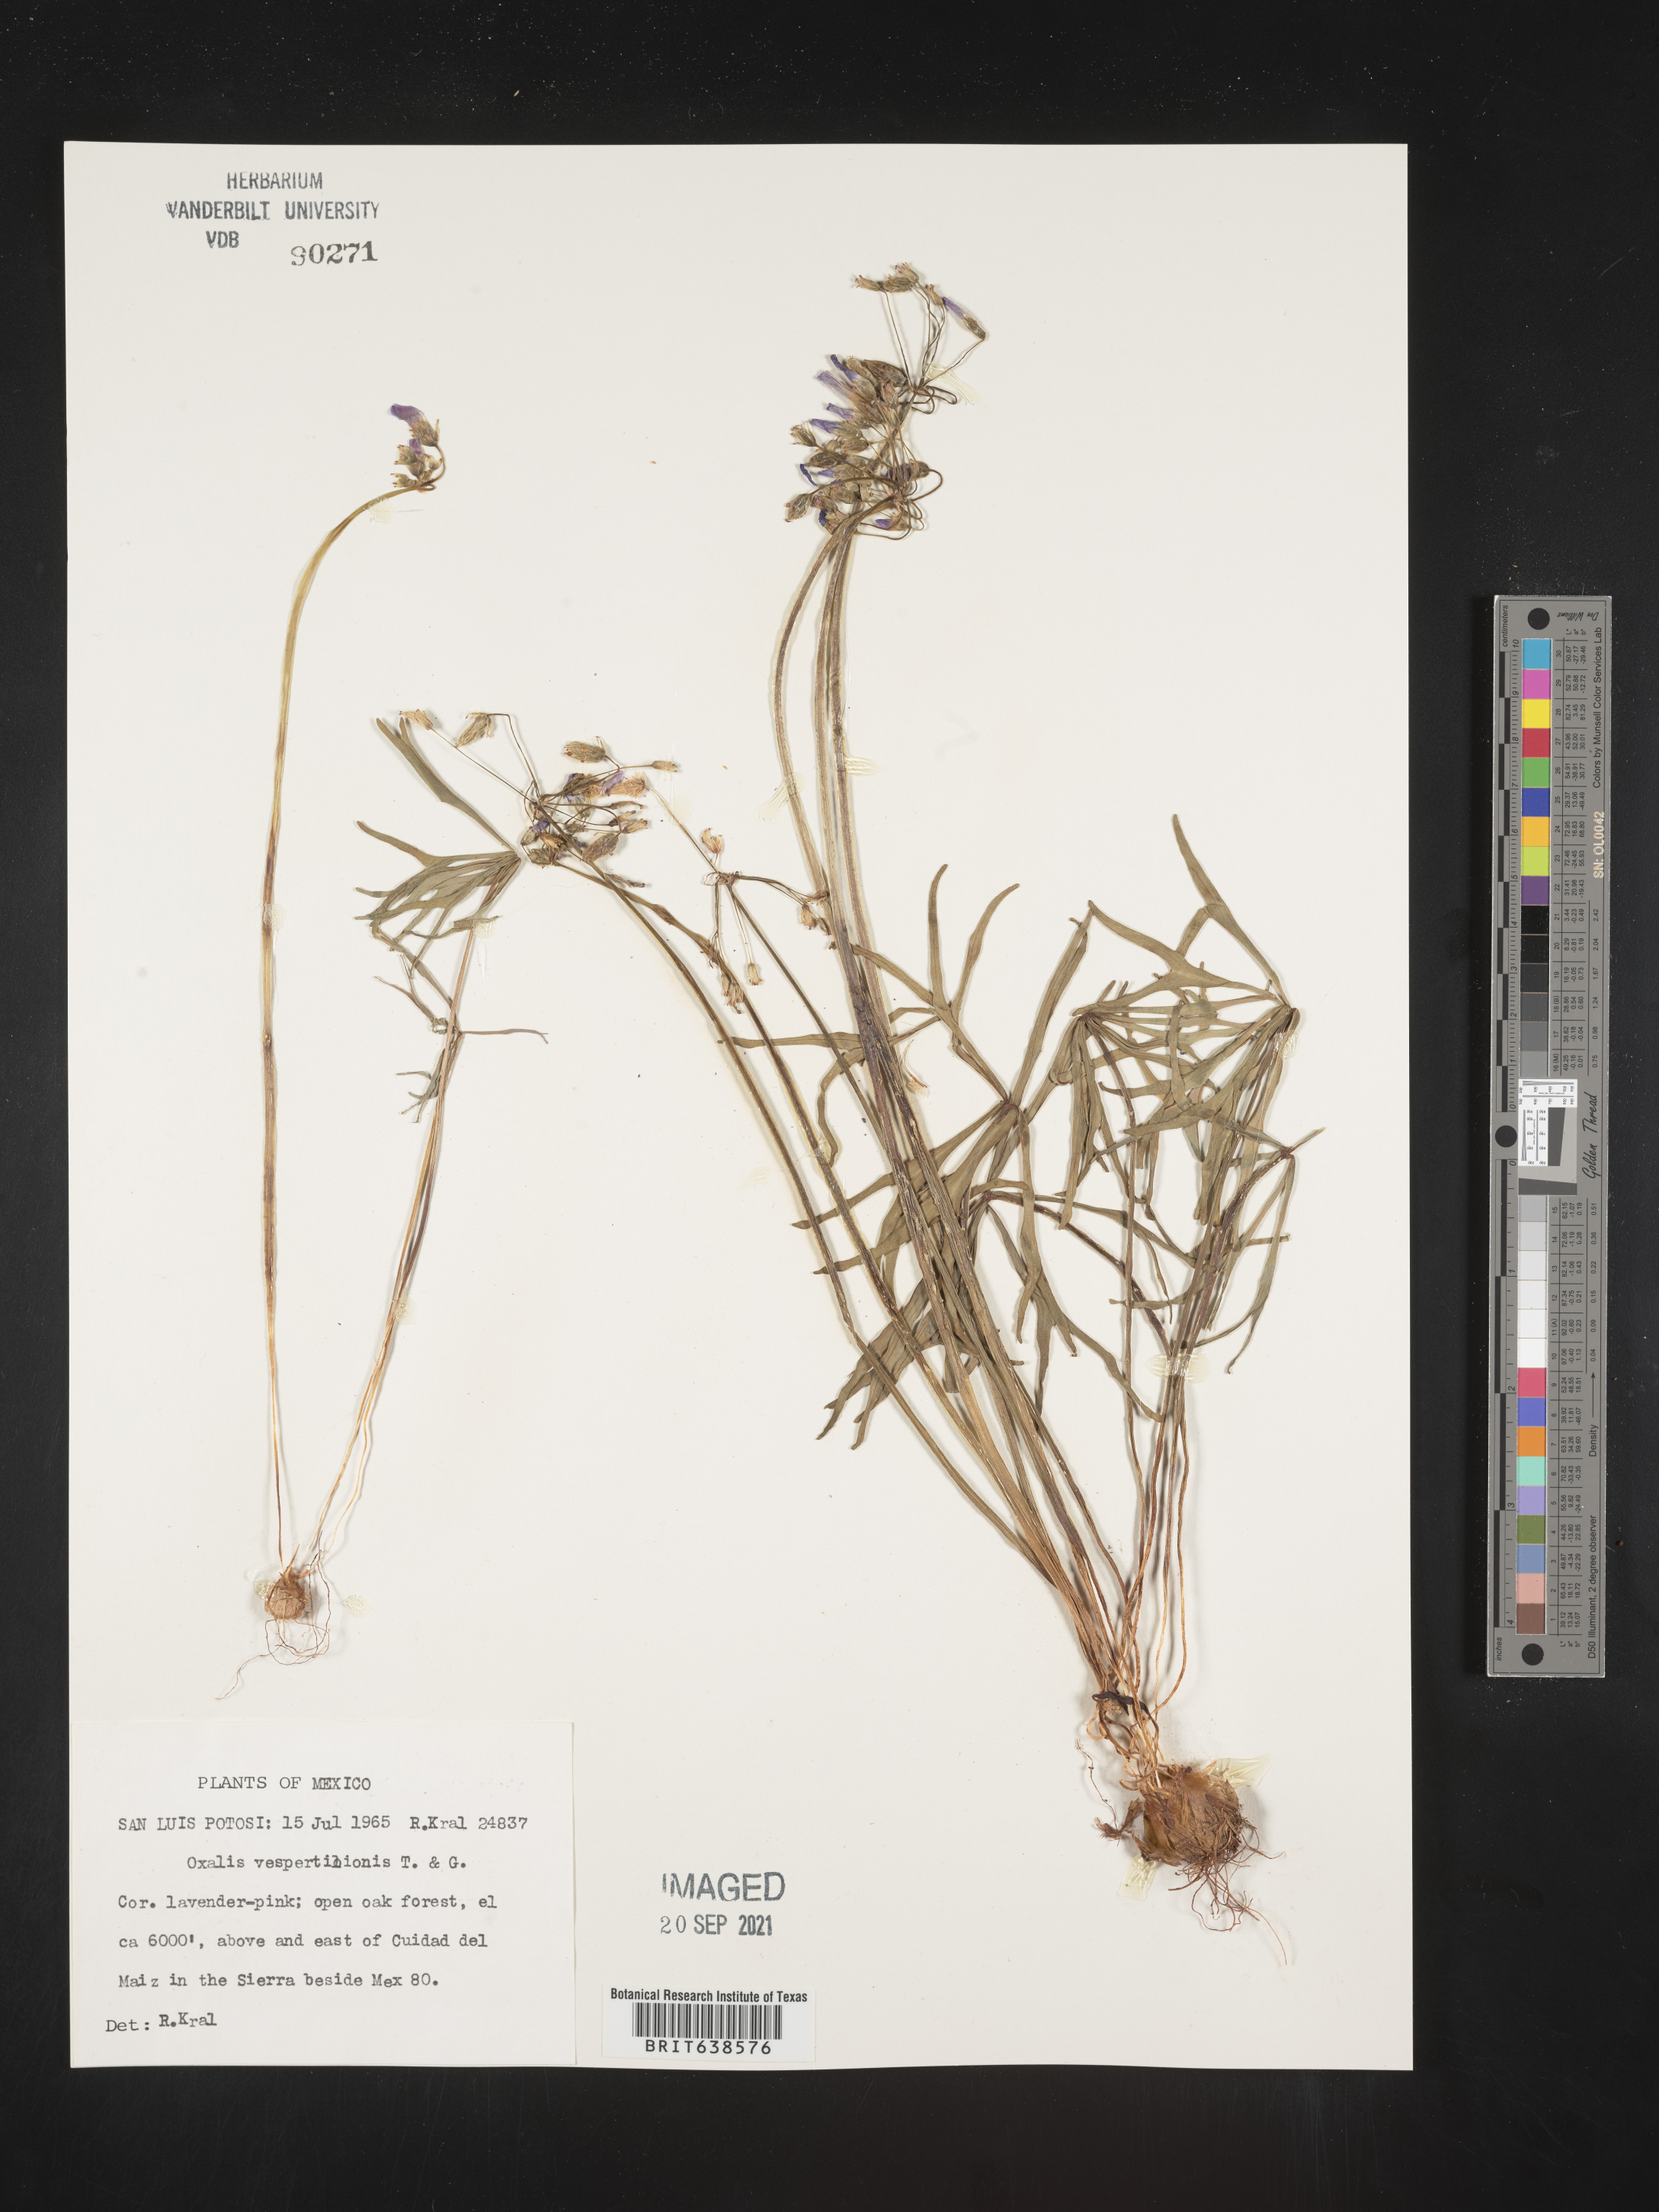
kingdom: Plantae
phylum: Tracheophyta
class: Magnoliopsida
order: Oxalidales
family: Oxalidaceae
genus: Oxalis
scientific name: Oxalis
